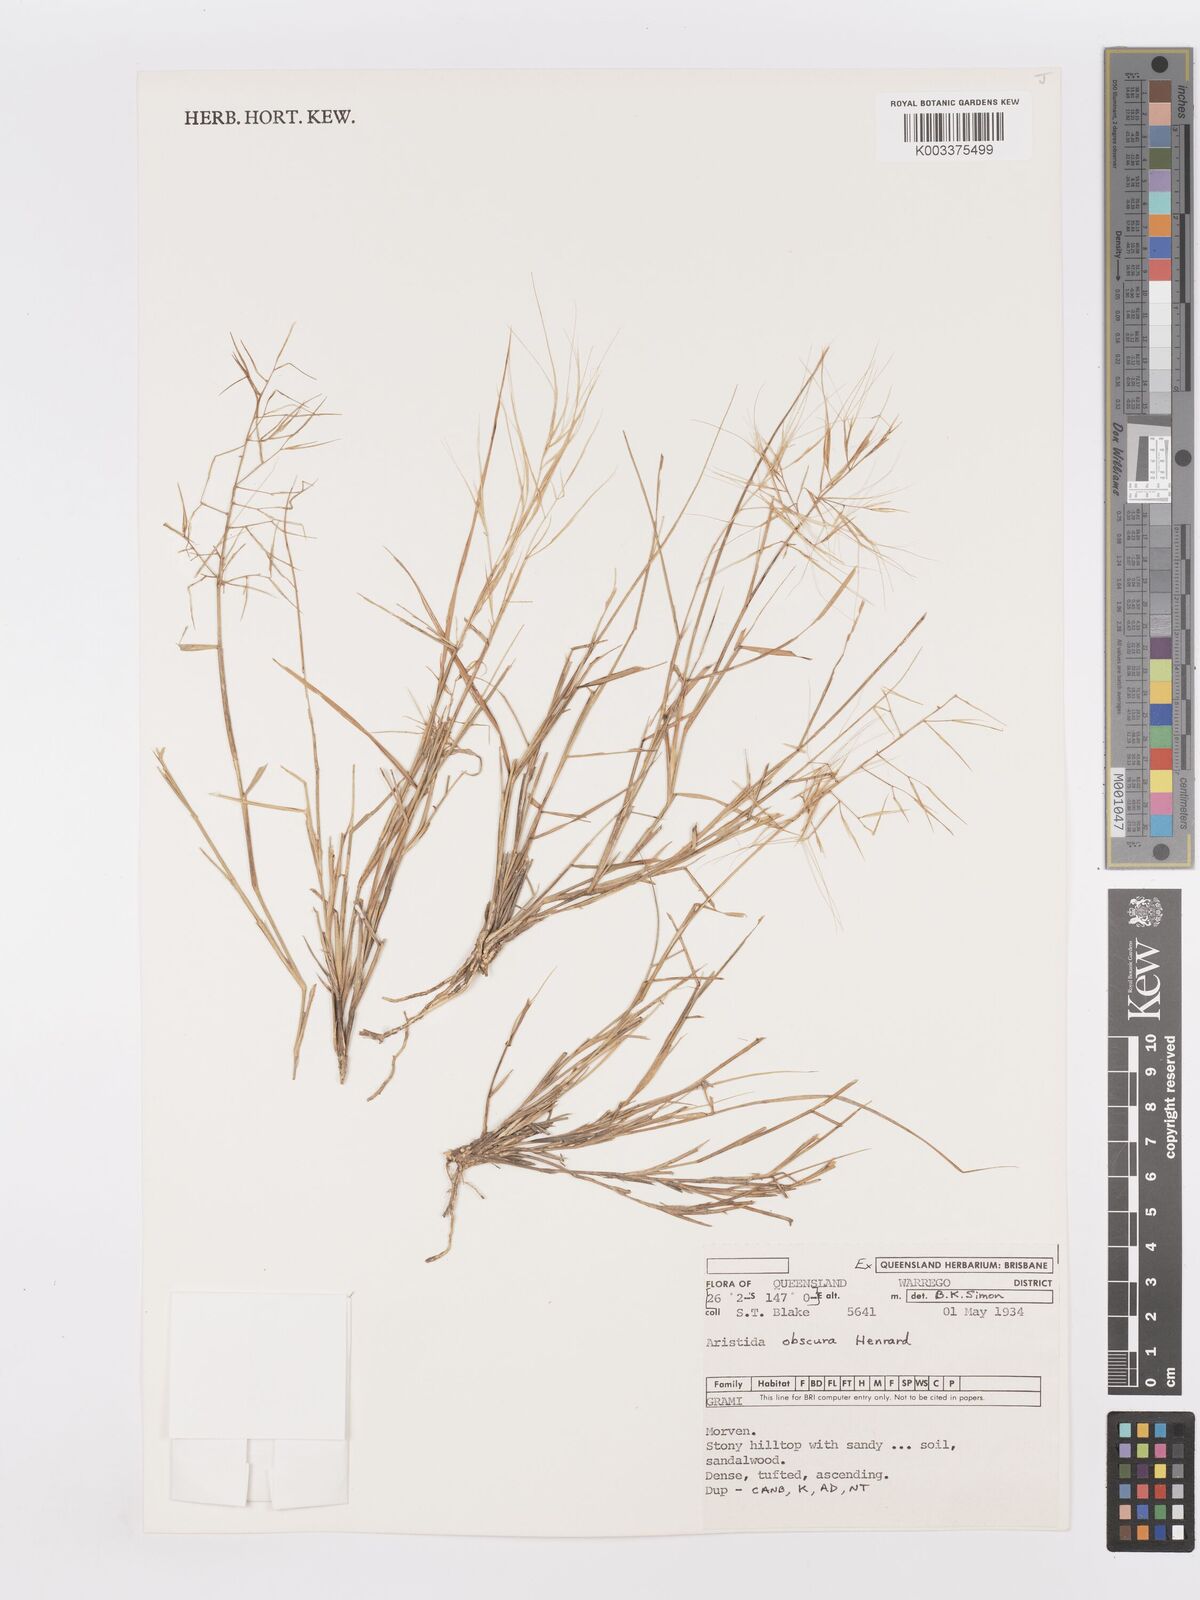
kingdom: Plantae
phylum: Tracheophyta
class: Liliopsida
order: Poales
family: Poaceae
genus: Aristida
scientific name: Aristida obscura
